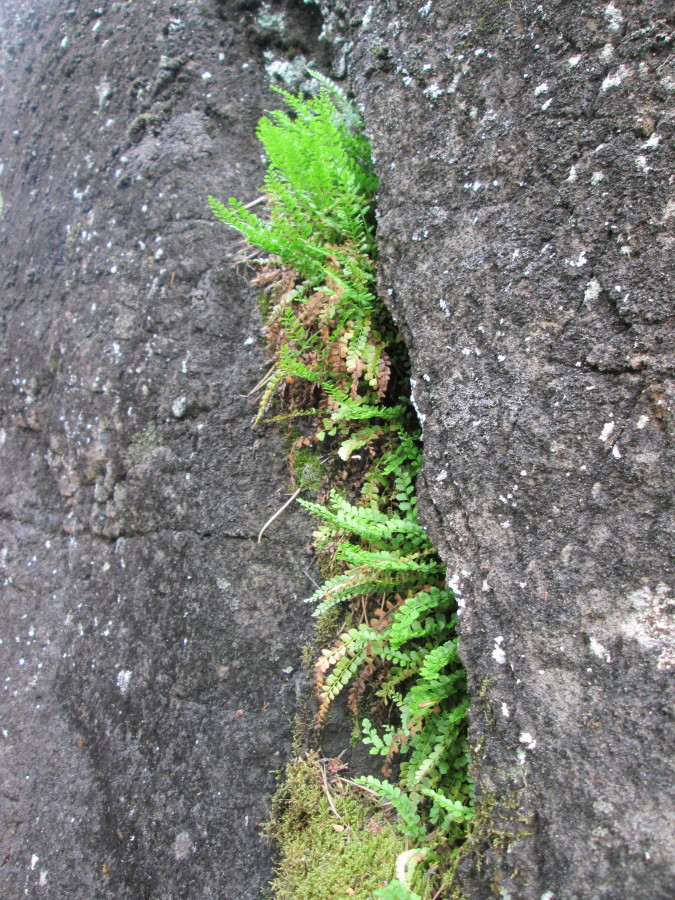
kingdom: Plantae
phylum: Tracheophyta
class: Polypodiopsida
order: Polypodiales
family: Aspleniaceae
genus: Asplenium
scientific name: Asplenium viride
